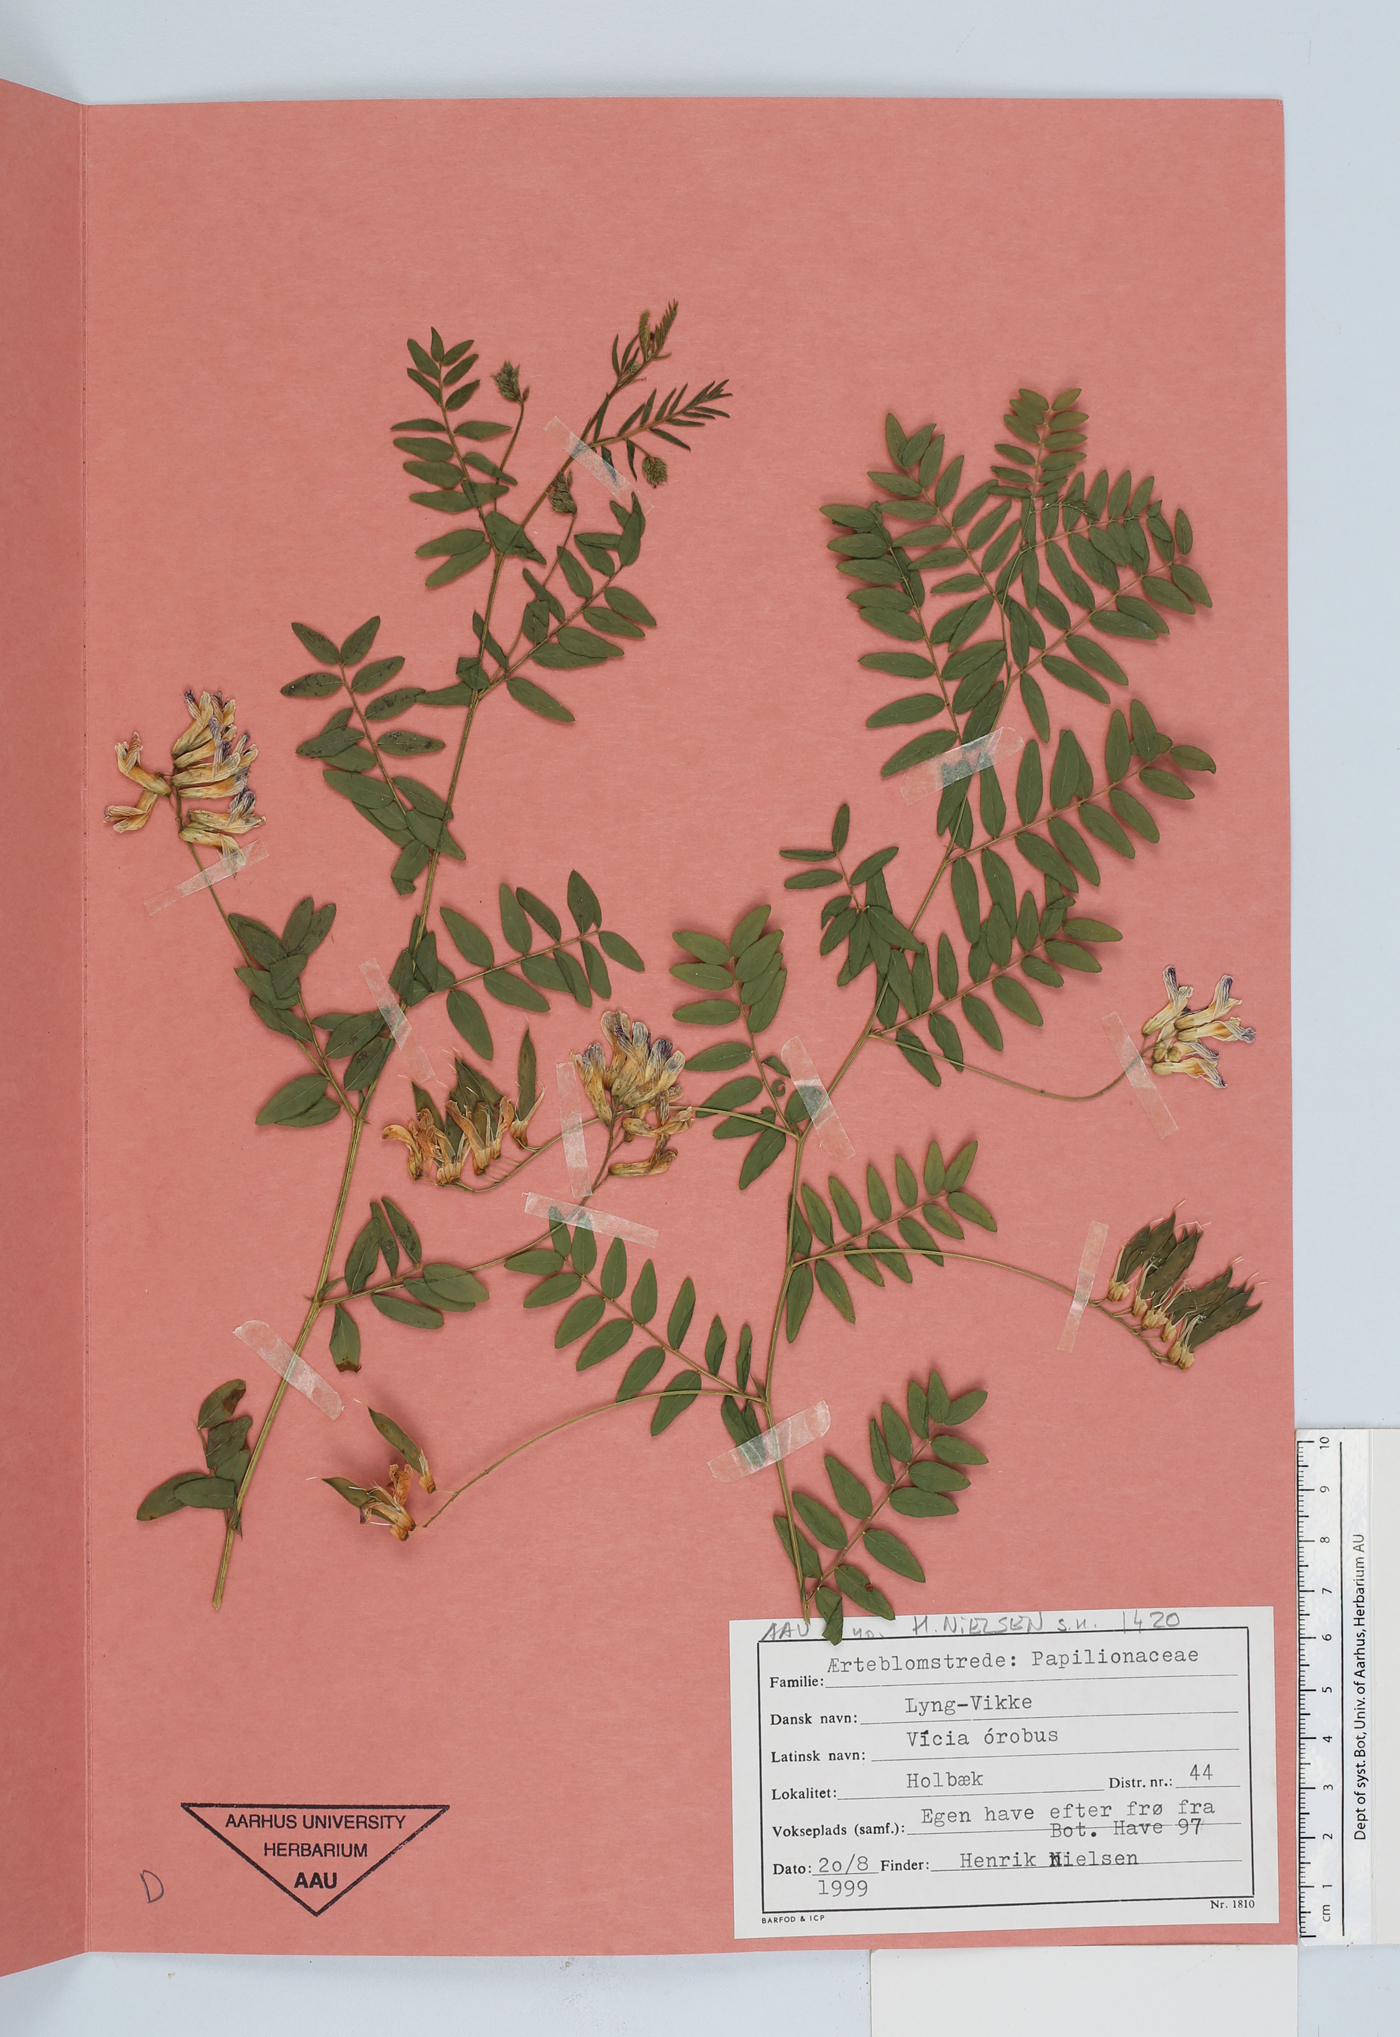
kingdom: Plantae
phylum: Tracheophyta
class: Magnoliopsida
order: Fabales
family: Fabaceae
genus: Vicia
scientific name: Vicia orobus
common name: Wood bitter-vetch
